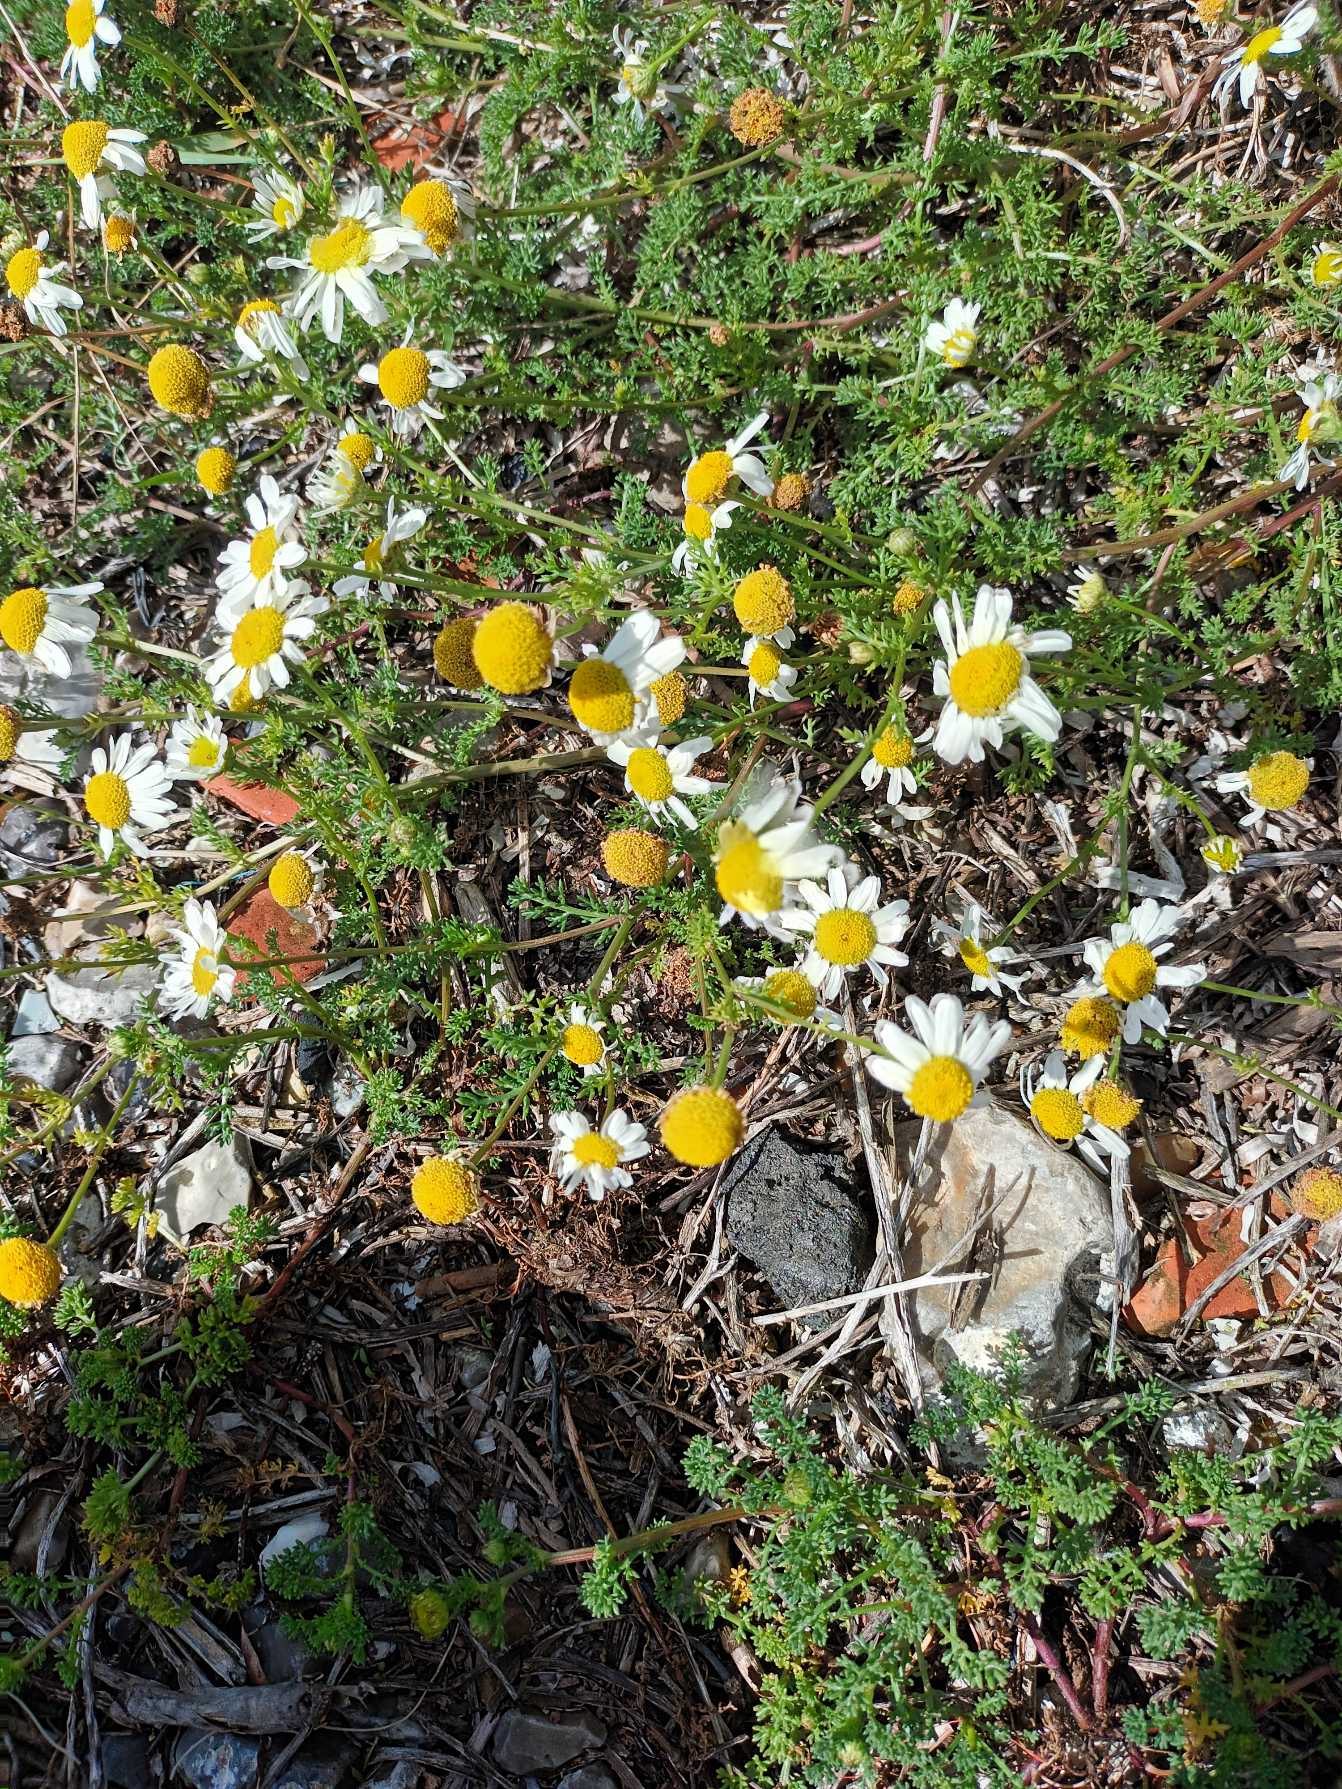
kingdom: Plantae
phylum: Tracheophyta
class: Magnoliopsida
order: Asterales
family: Asteraceae
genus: Tripleurospermum
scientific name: Tripleurospermum maritimum
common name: Strand-kamille
